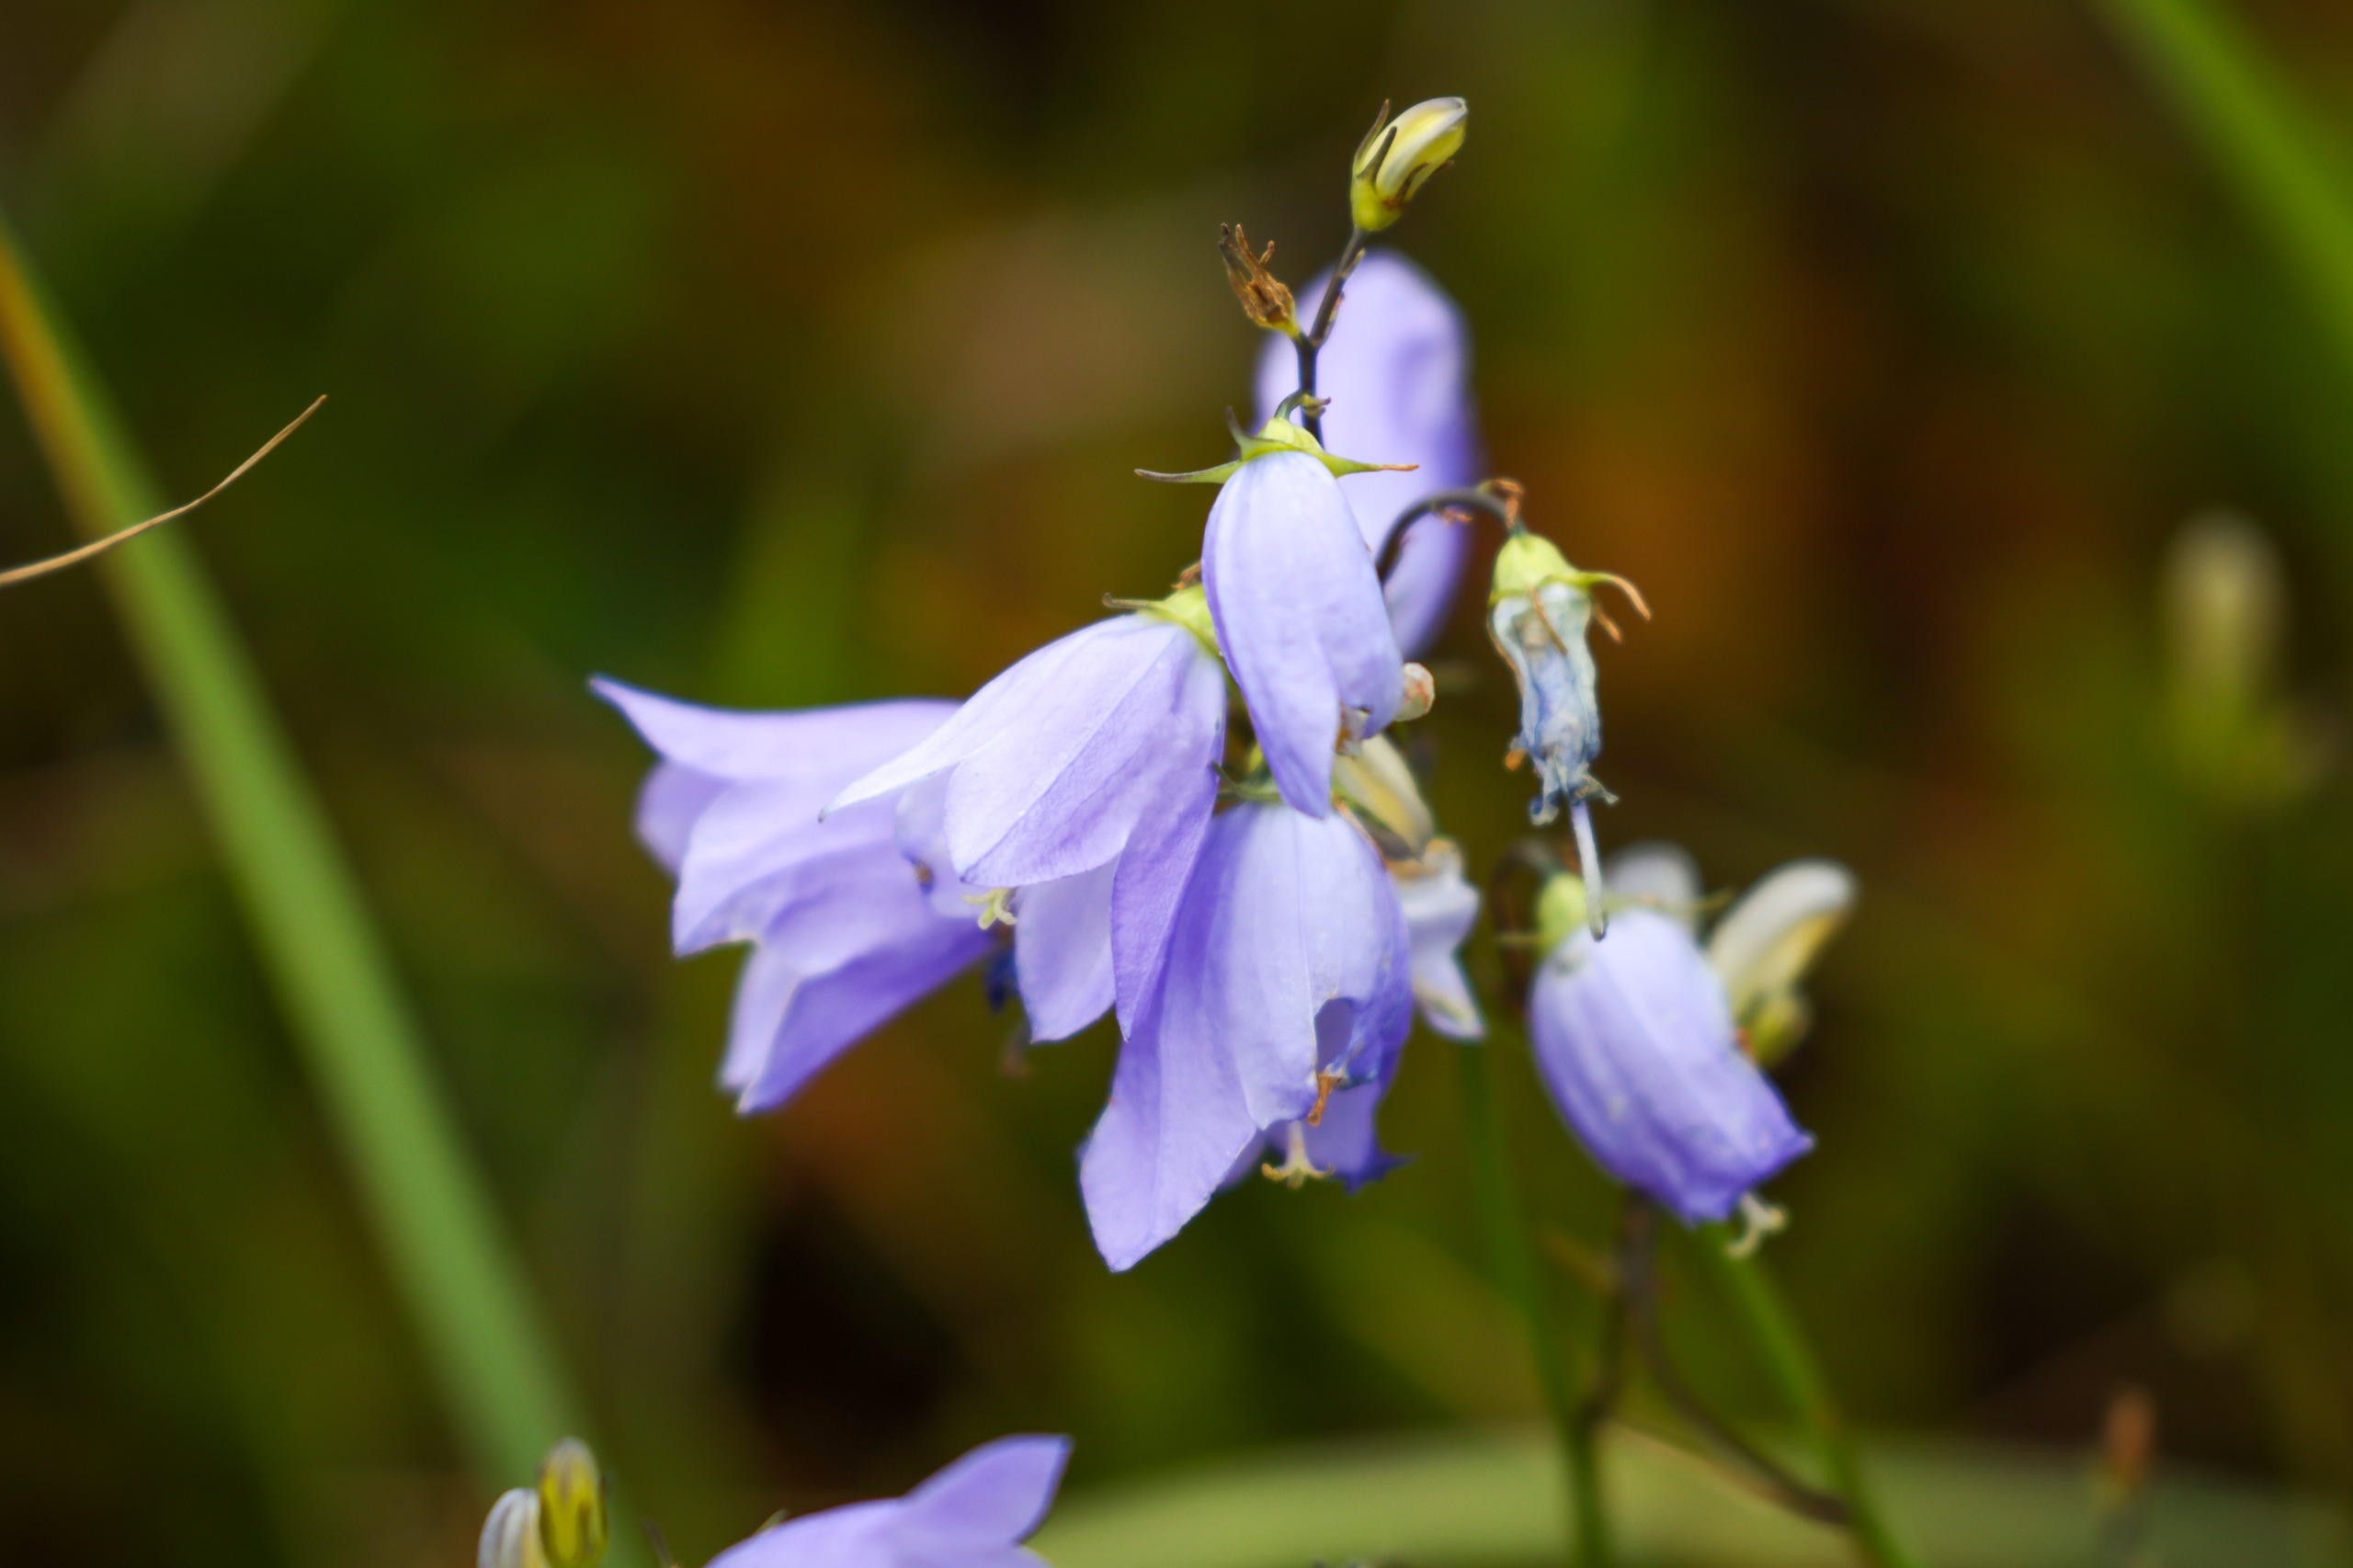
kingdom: Plantae
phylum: Tracheophyta
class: Magnoliopsida
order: Asterales
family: Campanulaceae
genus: Campanula
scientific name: Campanula rotundifolia
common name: Liden klokke
